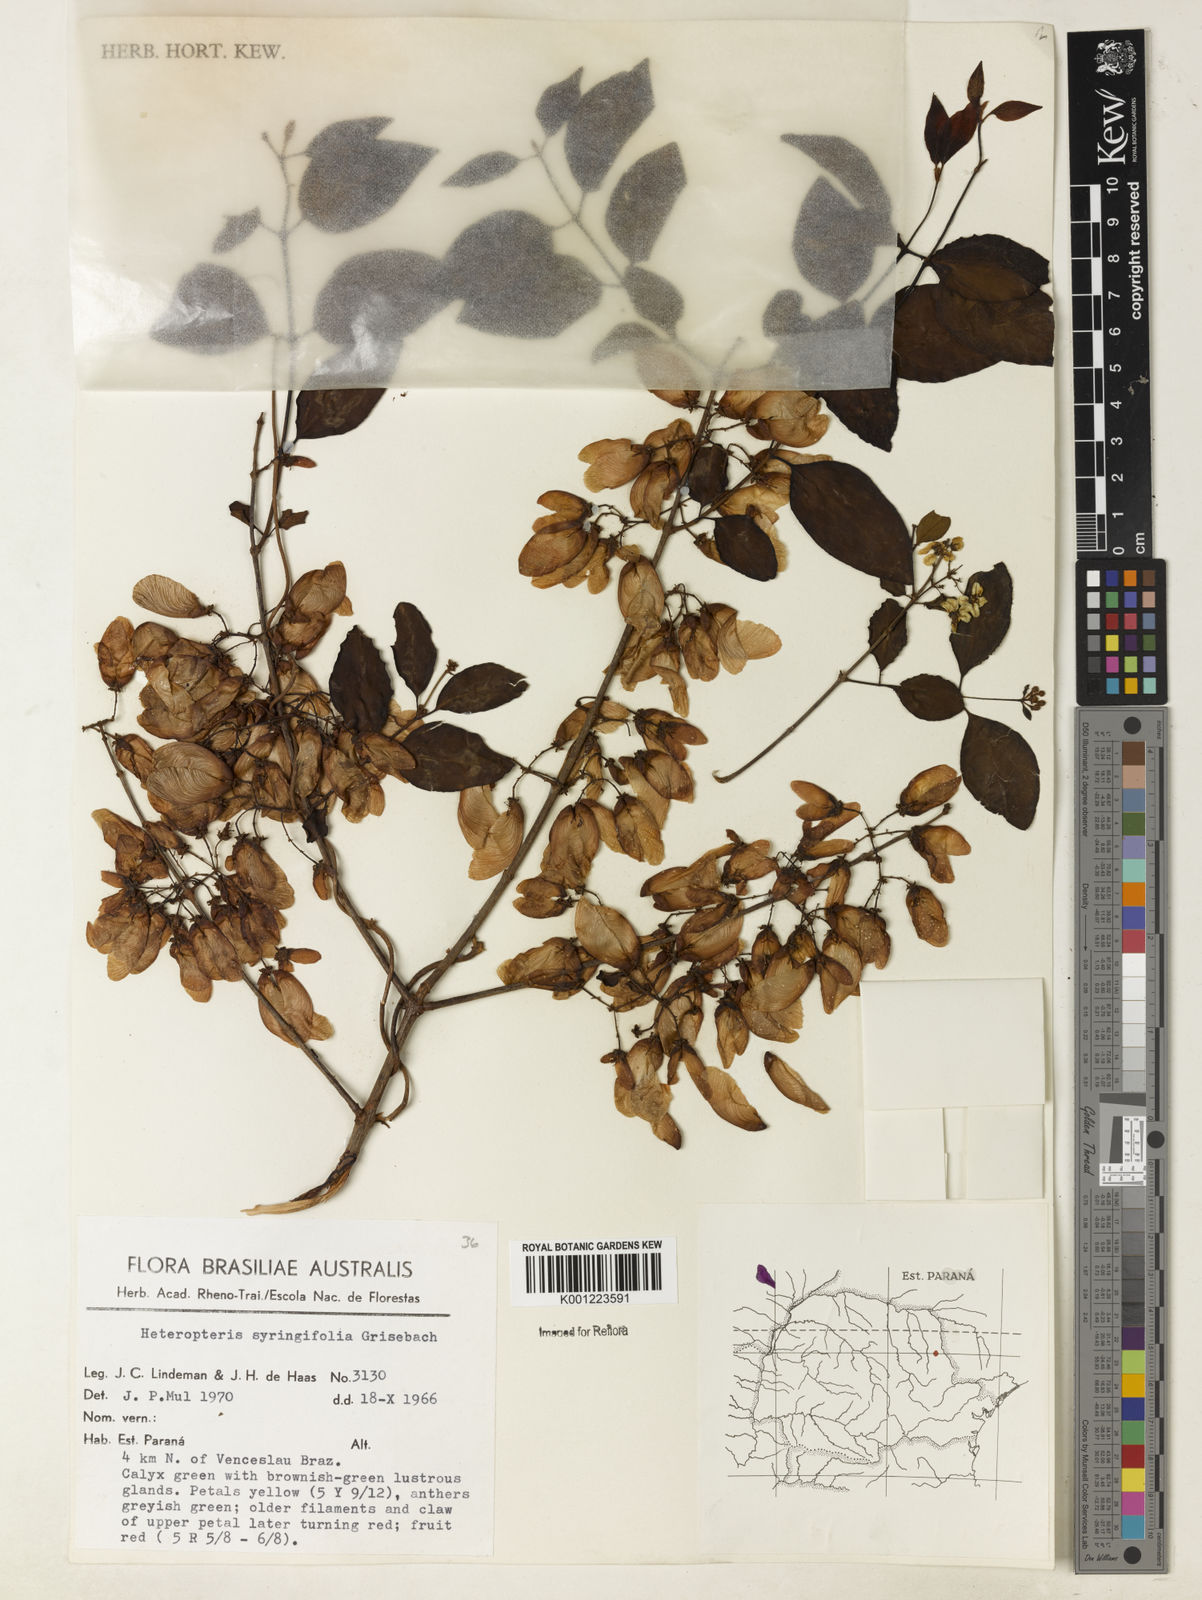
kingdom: Plantae
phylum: Tracheophyta
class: Magnoliopsida
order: Malpighiales
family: Malpighiaceae
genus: Heteropterys
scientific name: Heteropterys syringifolia
